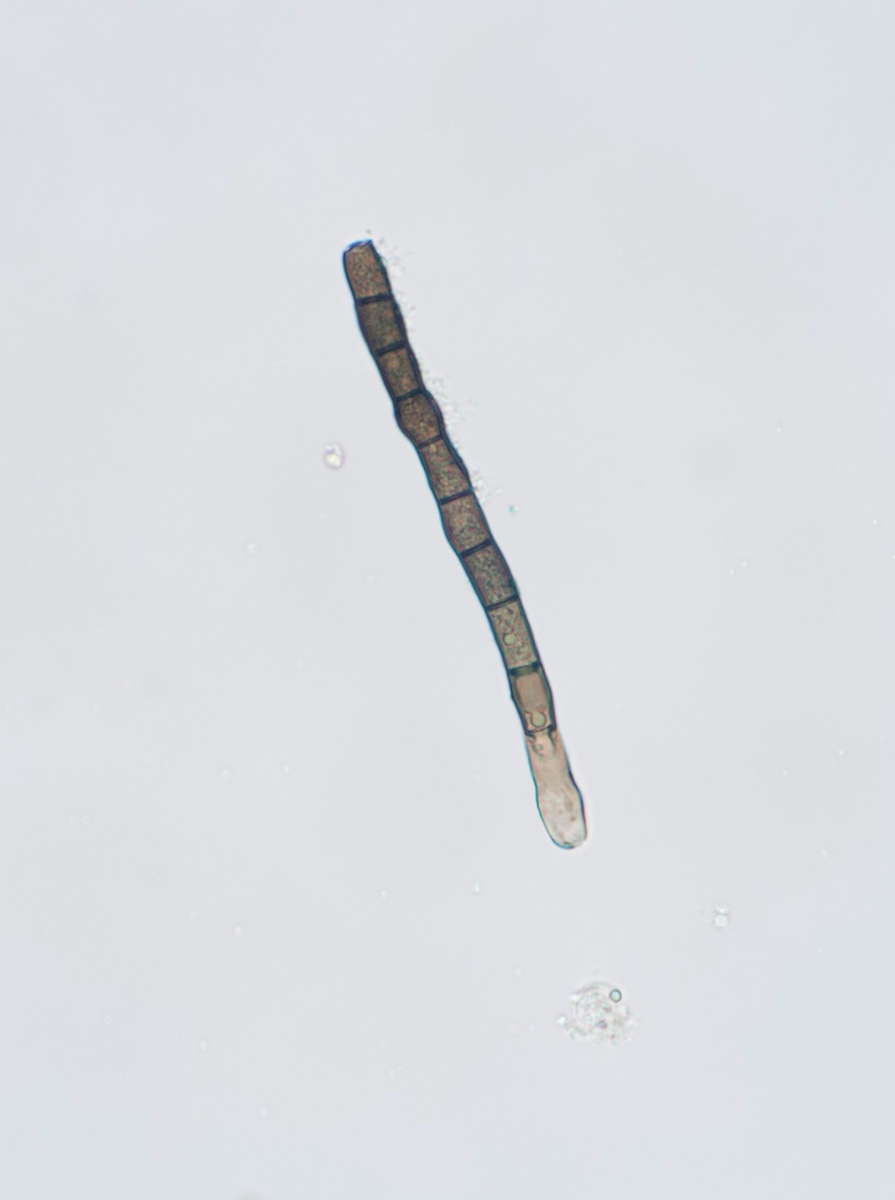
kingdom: Fungi
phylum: Ascomycota
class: Dothideomycetes
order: Mytilinidiales
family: Mytilinidiaceae
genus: Taeniolella
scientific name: Taeniolella phaeophysciae
